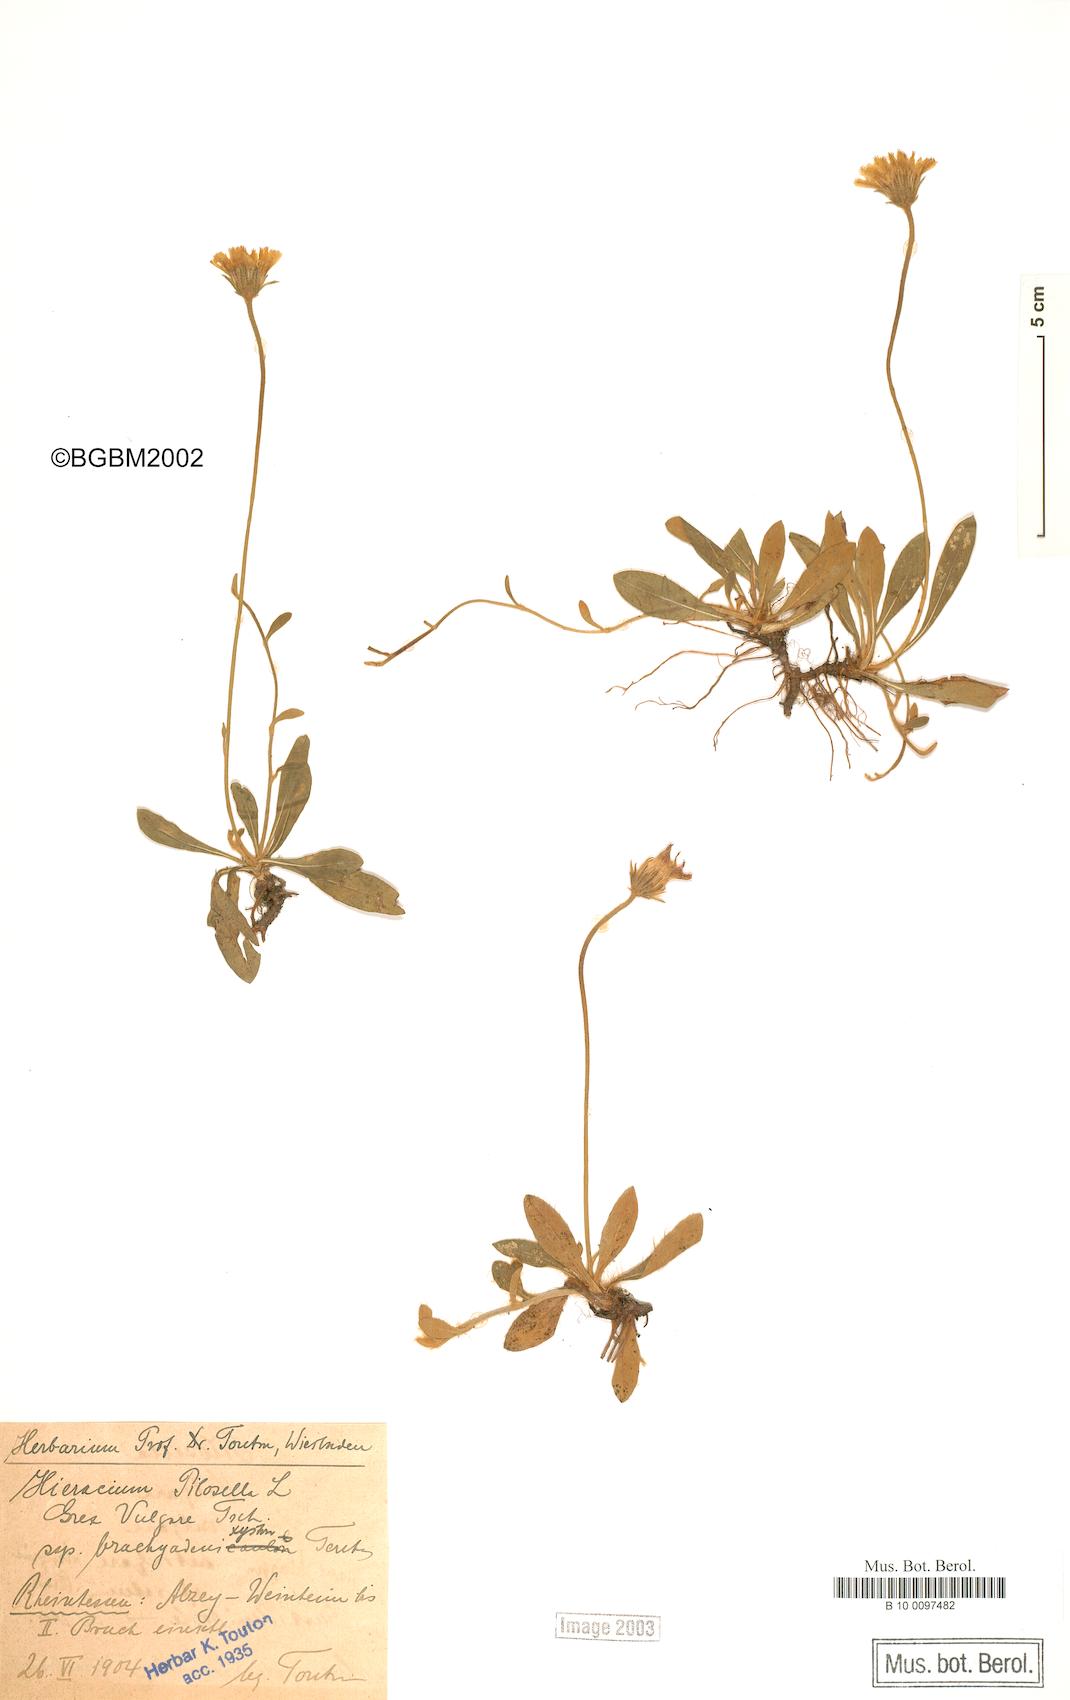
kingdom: Plantae
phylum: Tracheophyta
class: Magnoliopsida
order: Asterales
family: Asteraceae
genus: Pilosella
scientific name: Pilosella officinarum
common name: Mouse-ear hawkweed
